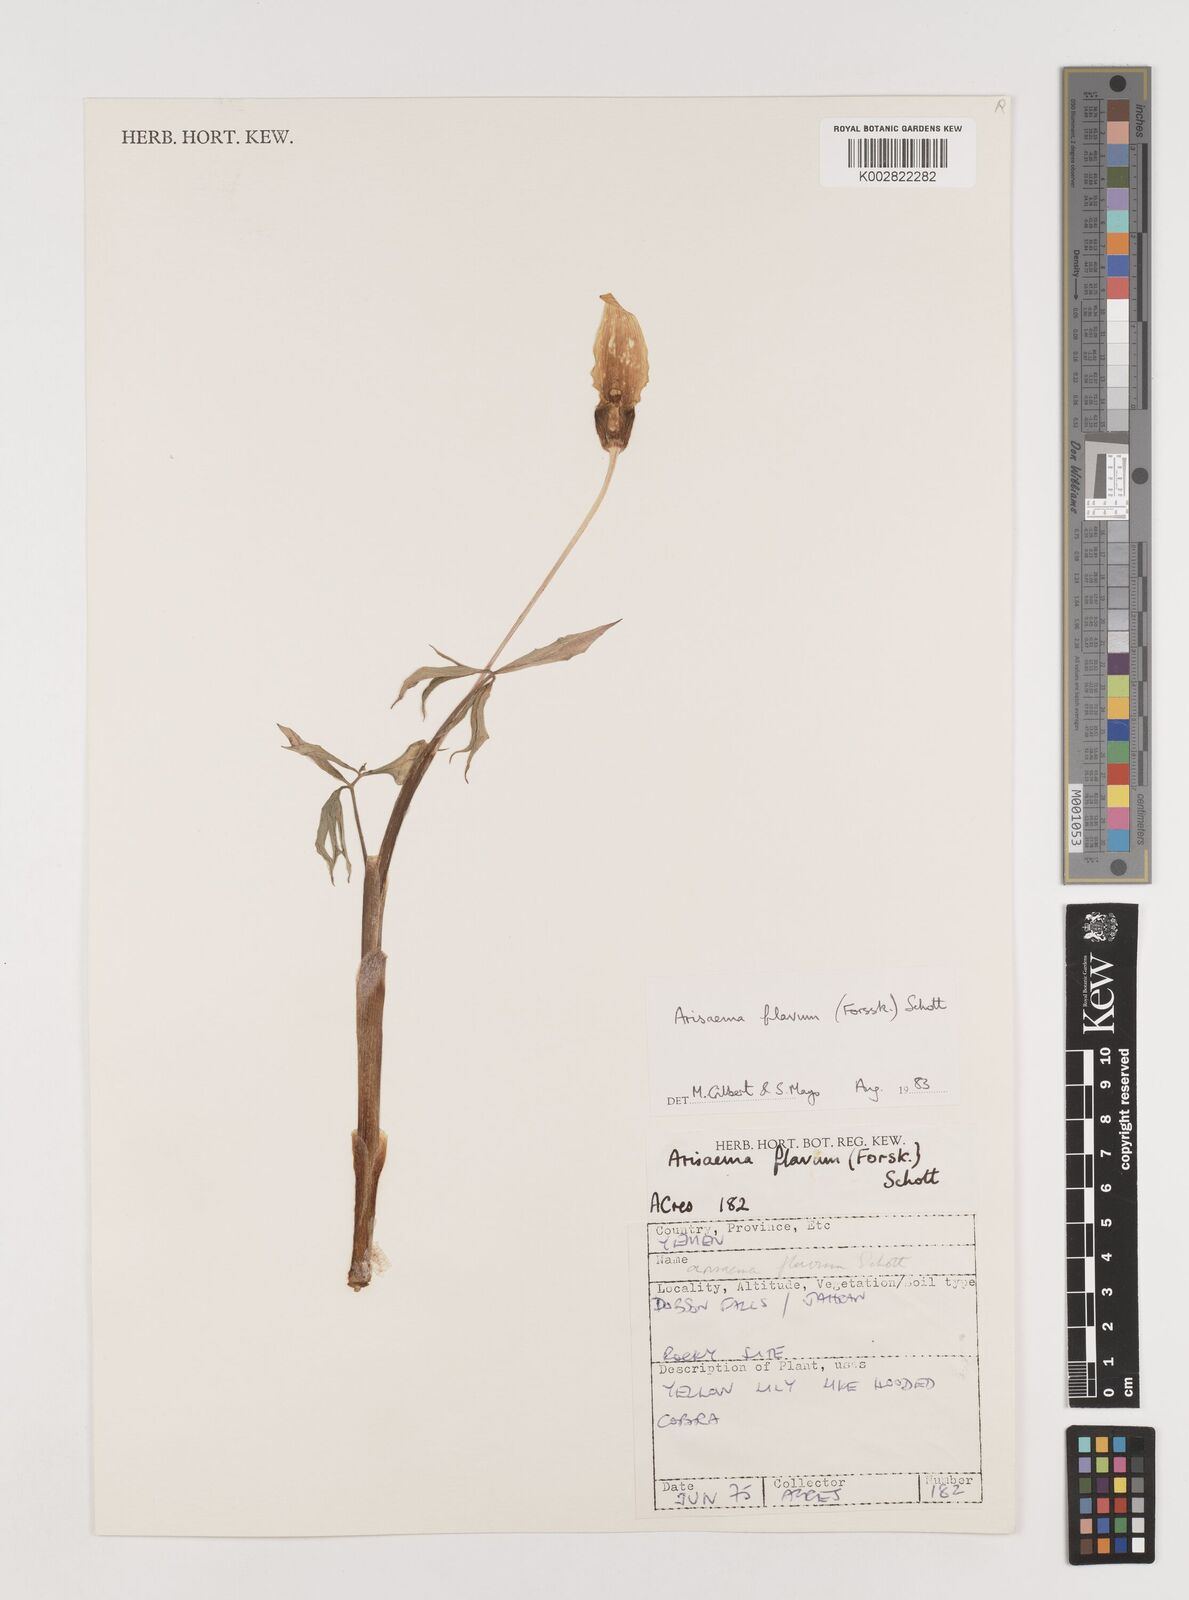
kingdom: Plantae
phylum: Tracheophyta
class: Liliopsida
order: Alismatales
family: Araceae
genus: Arisaema
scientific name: Arisaema flavum
